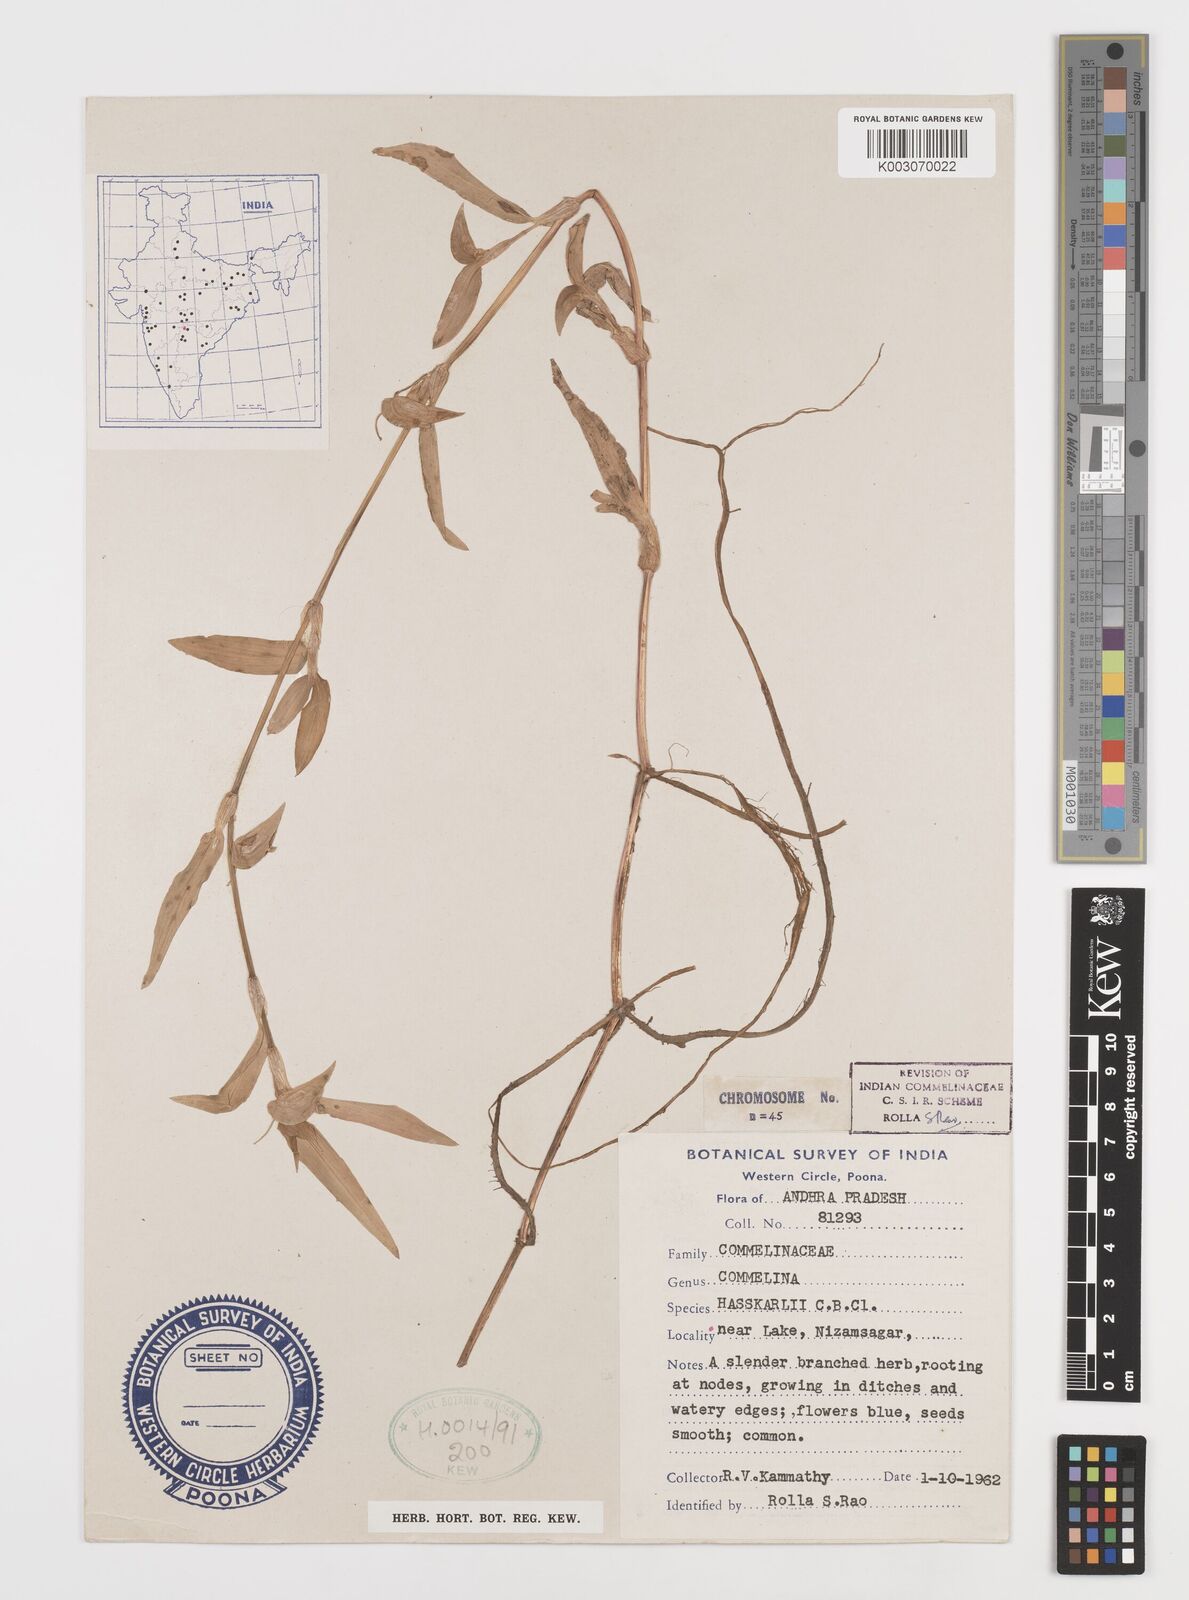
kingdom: Plantae
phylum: Tracheophyta
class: Liliopsida
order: Commelinales
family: Commelinaceae
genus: Commelina
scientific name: Commelina caroliniana
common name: Carolina dayflower
